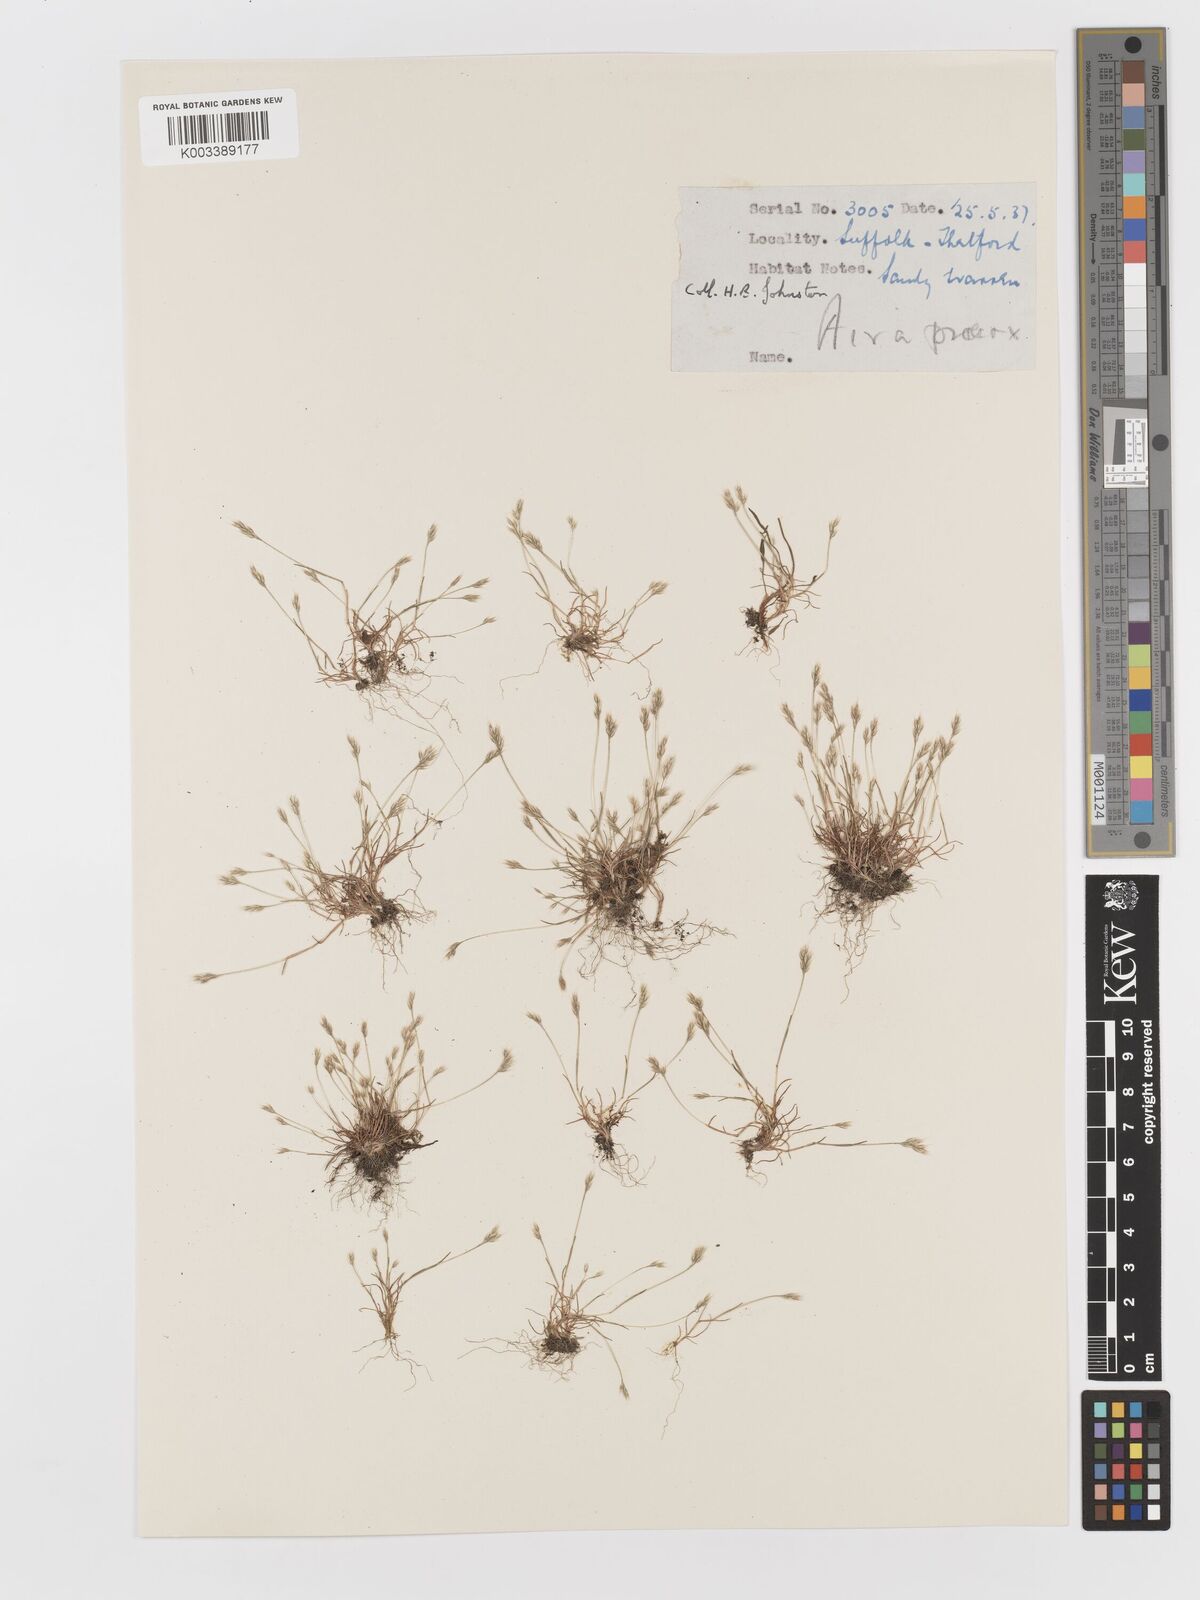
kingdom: Plantae
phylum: Tracheophyta
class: Liliopsida
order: Poales
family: Poaceae
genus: Aira
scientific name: Aira praecox
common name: Early hair-grass
